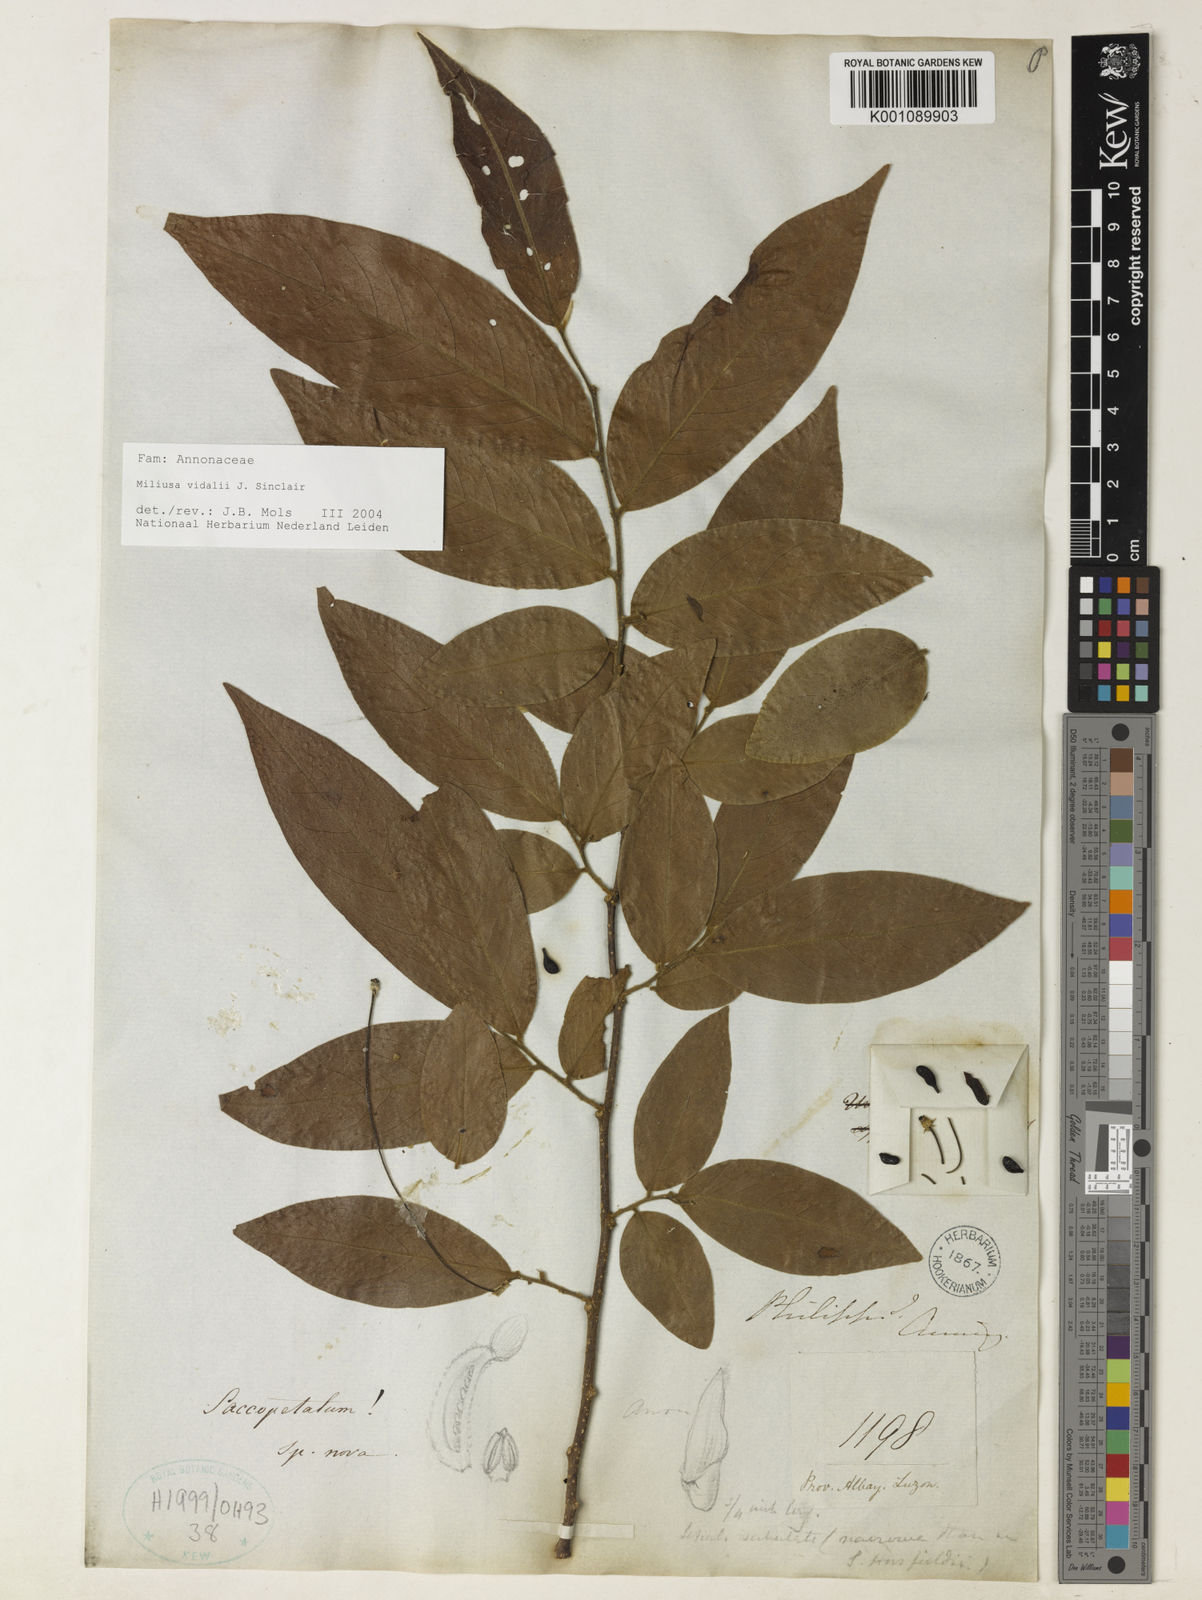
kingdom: Plantae
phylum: Tracheophyta
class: Magnoliopsida
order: Magnoliales
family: Annonaceae
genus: Miliusa
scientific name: Miliusa longipes
